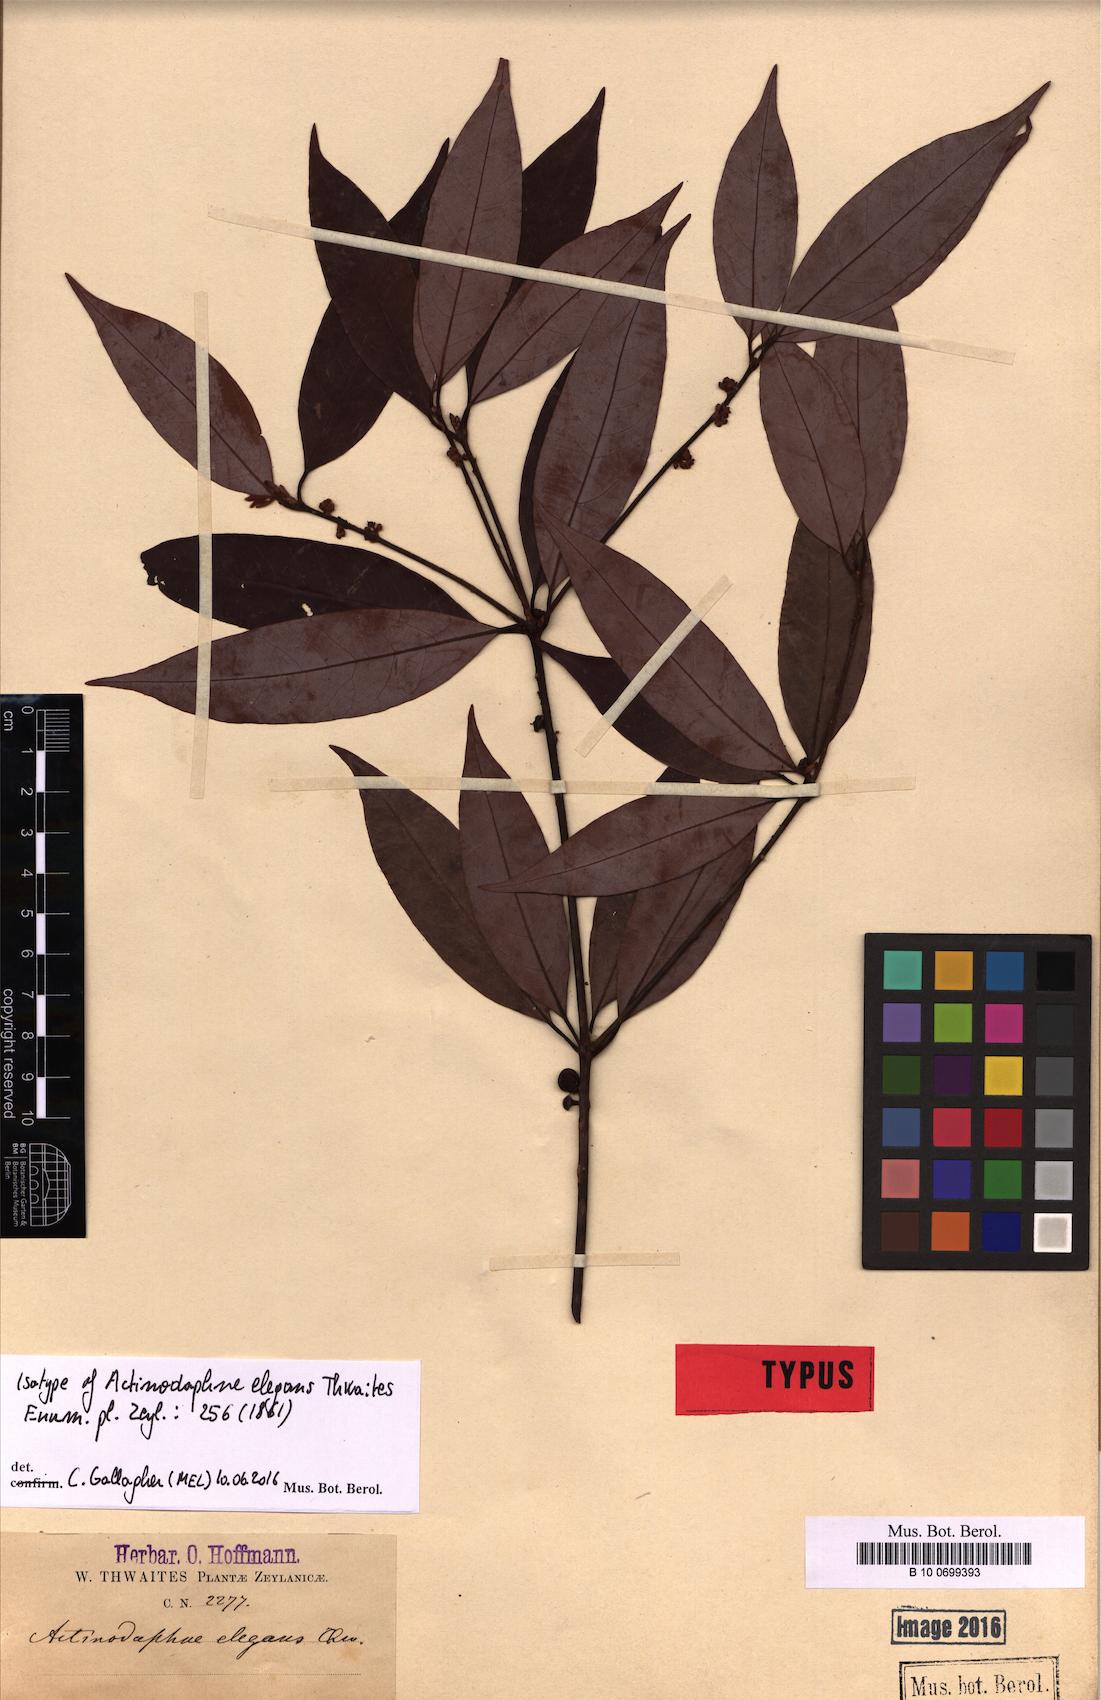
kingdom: Plantae
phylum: Tracheophyta
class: Magnoliopsida
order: Laurales
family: Lauraceae
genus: Actinodaphne
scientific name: Actinodaphne elegans
